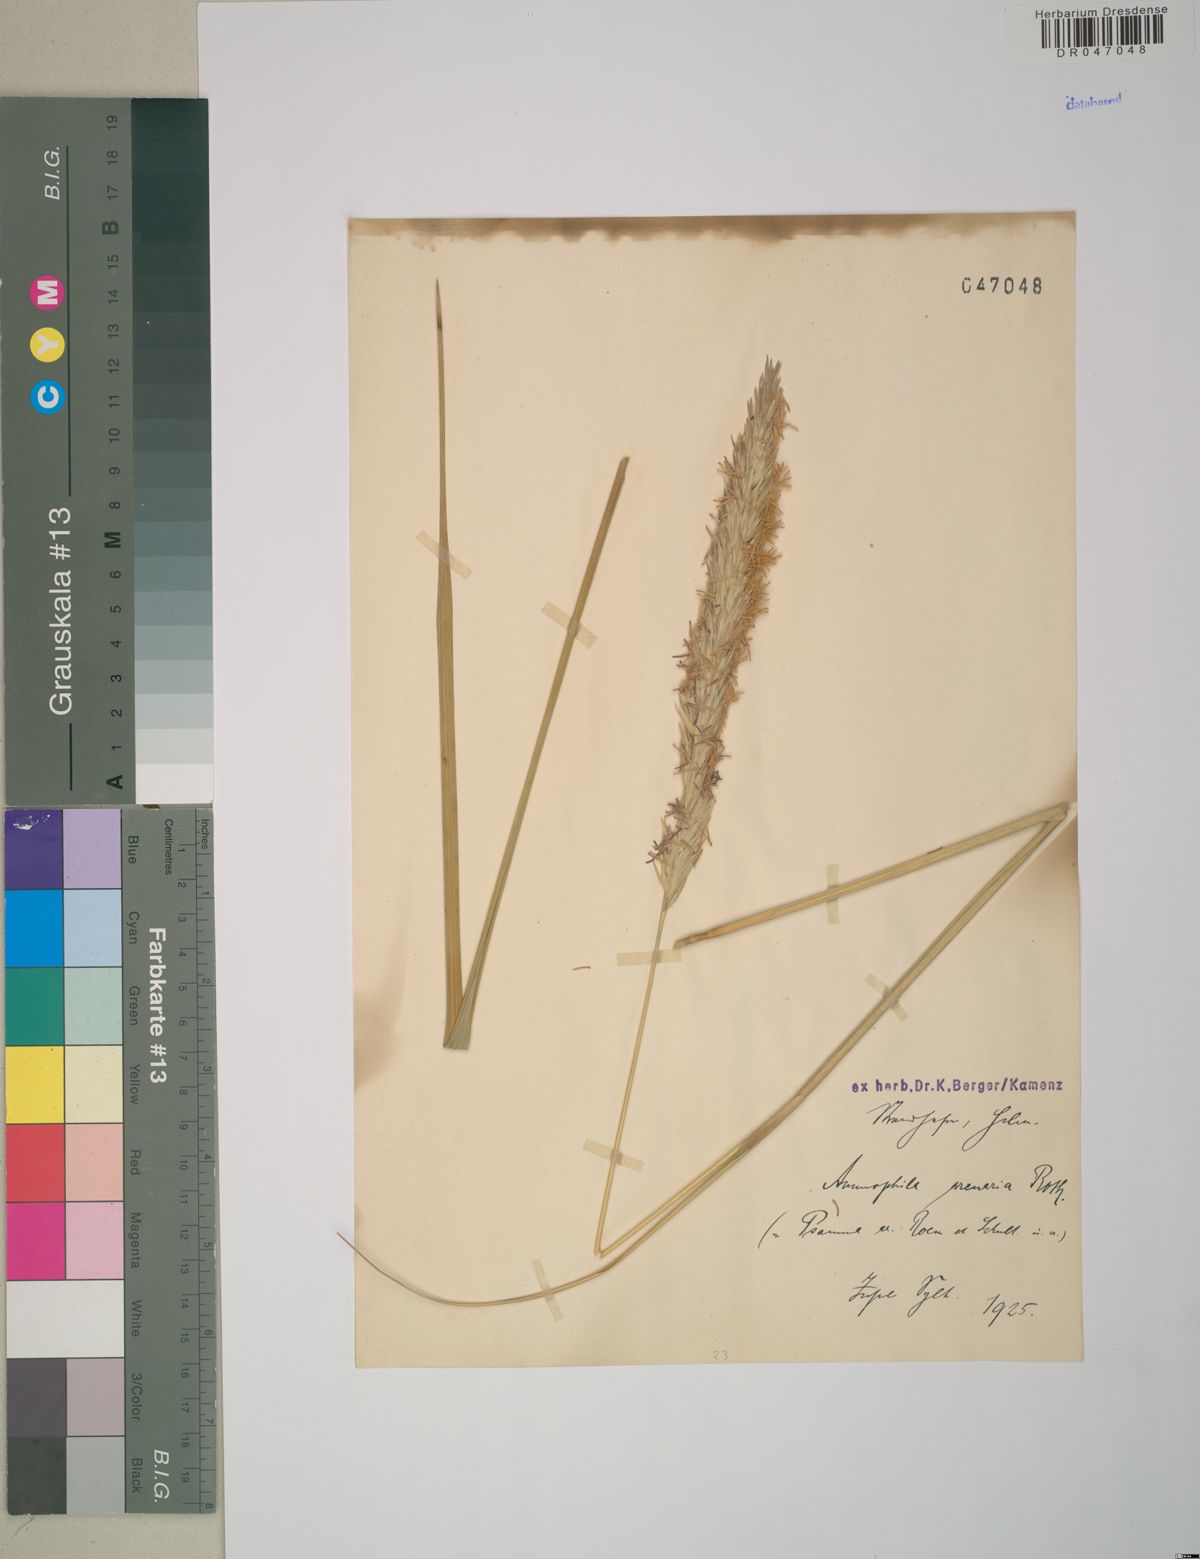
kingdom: Plantae
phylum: Tracheophyta
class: Liliopsida
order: Poales
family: Poaceae
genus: Calamagrostis
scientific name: Calamagrostis arenaria
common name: European beachgrass
